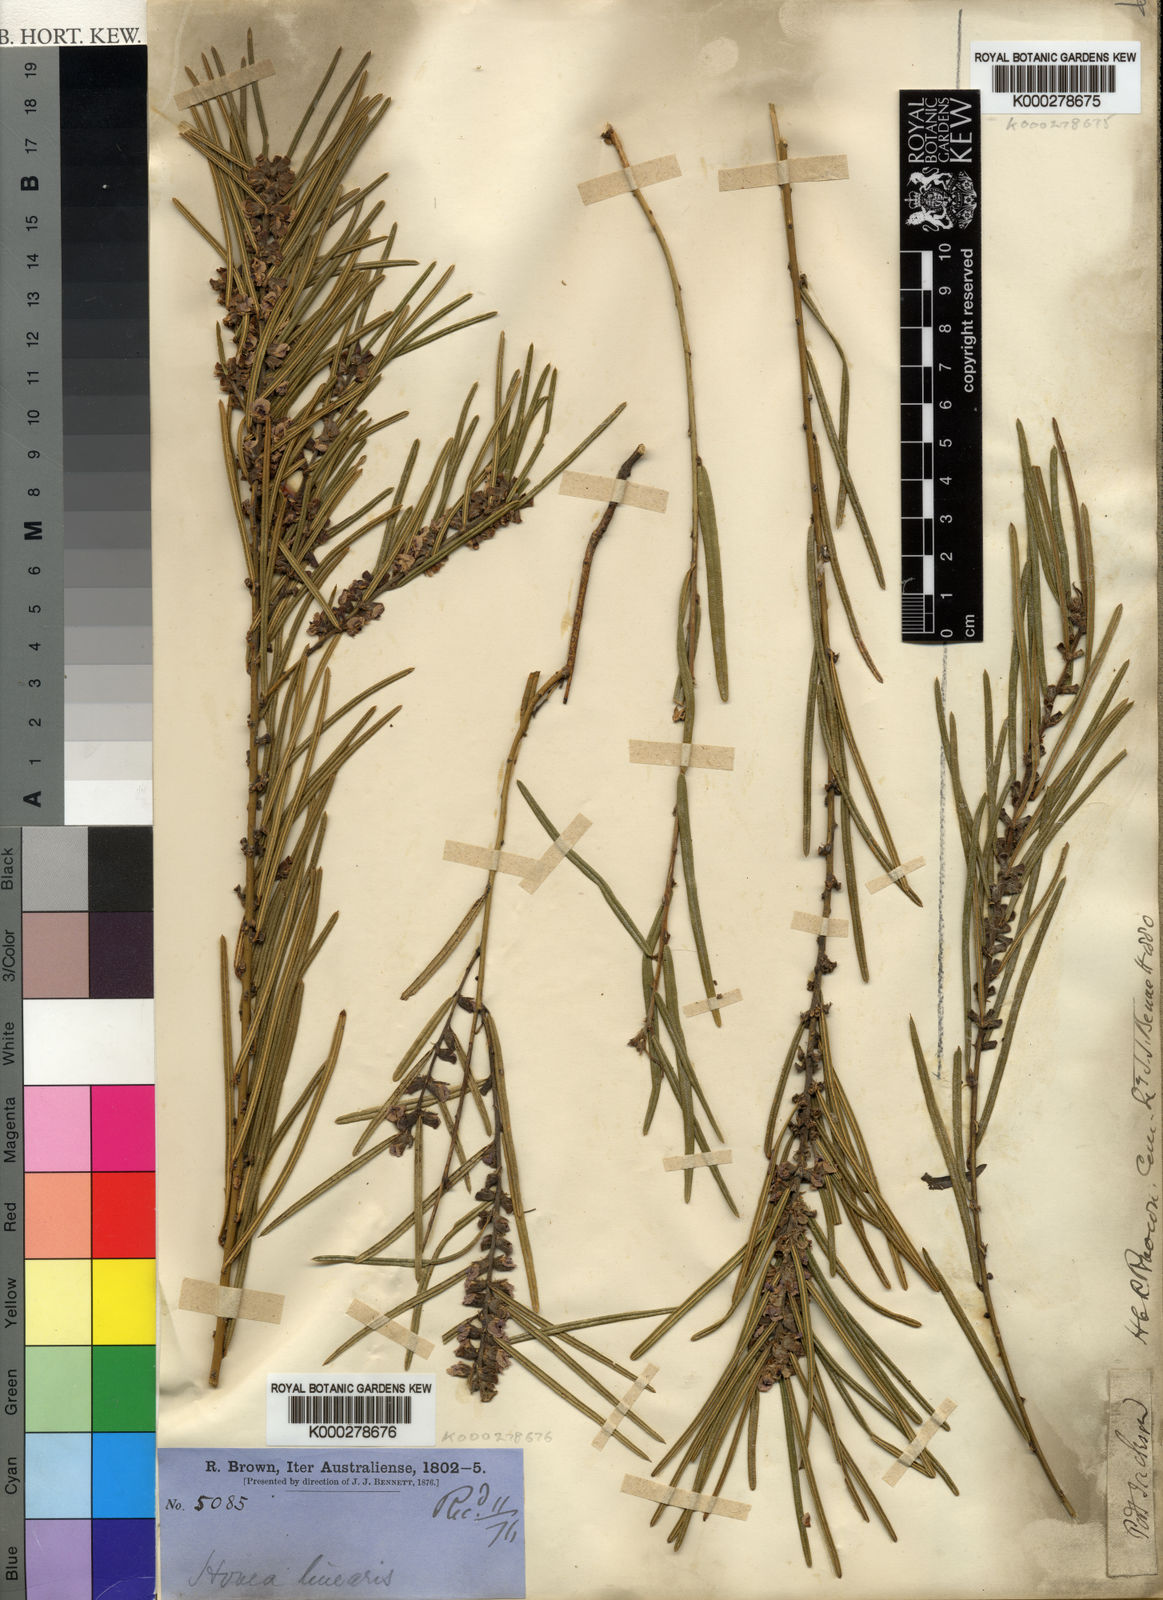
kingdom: Plantae
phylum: Tracheophyta
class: Magnoliopsida
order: Fabales
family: Fabaceae
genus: Hovea
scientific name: Hovea linearis
